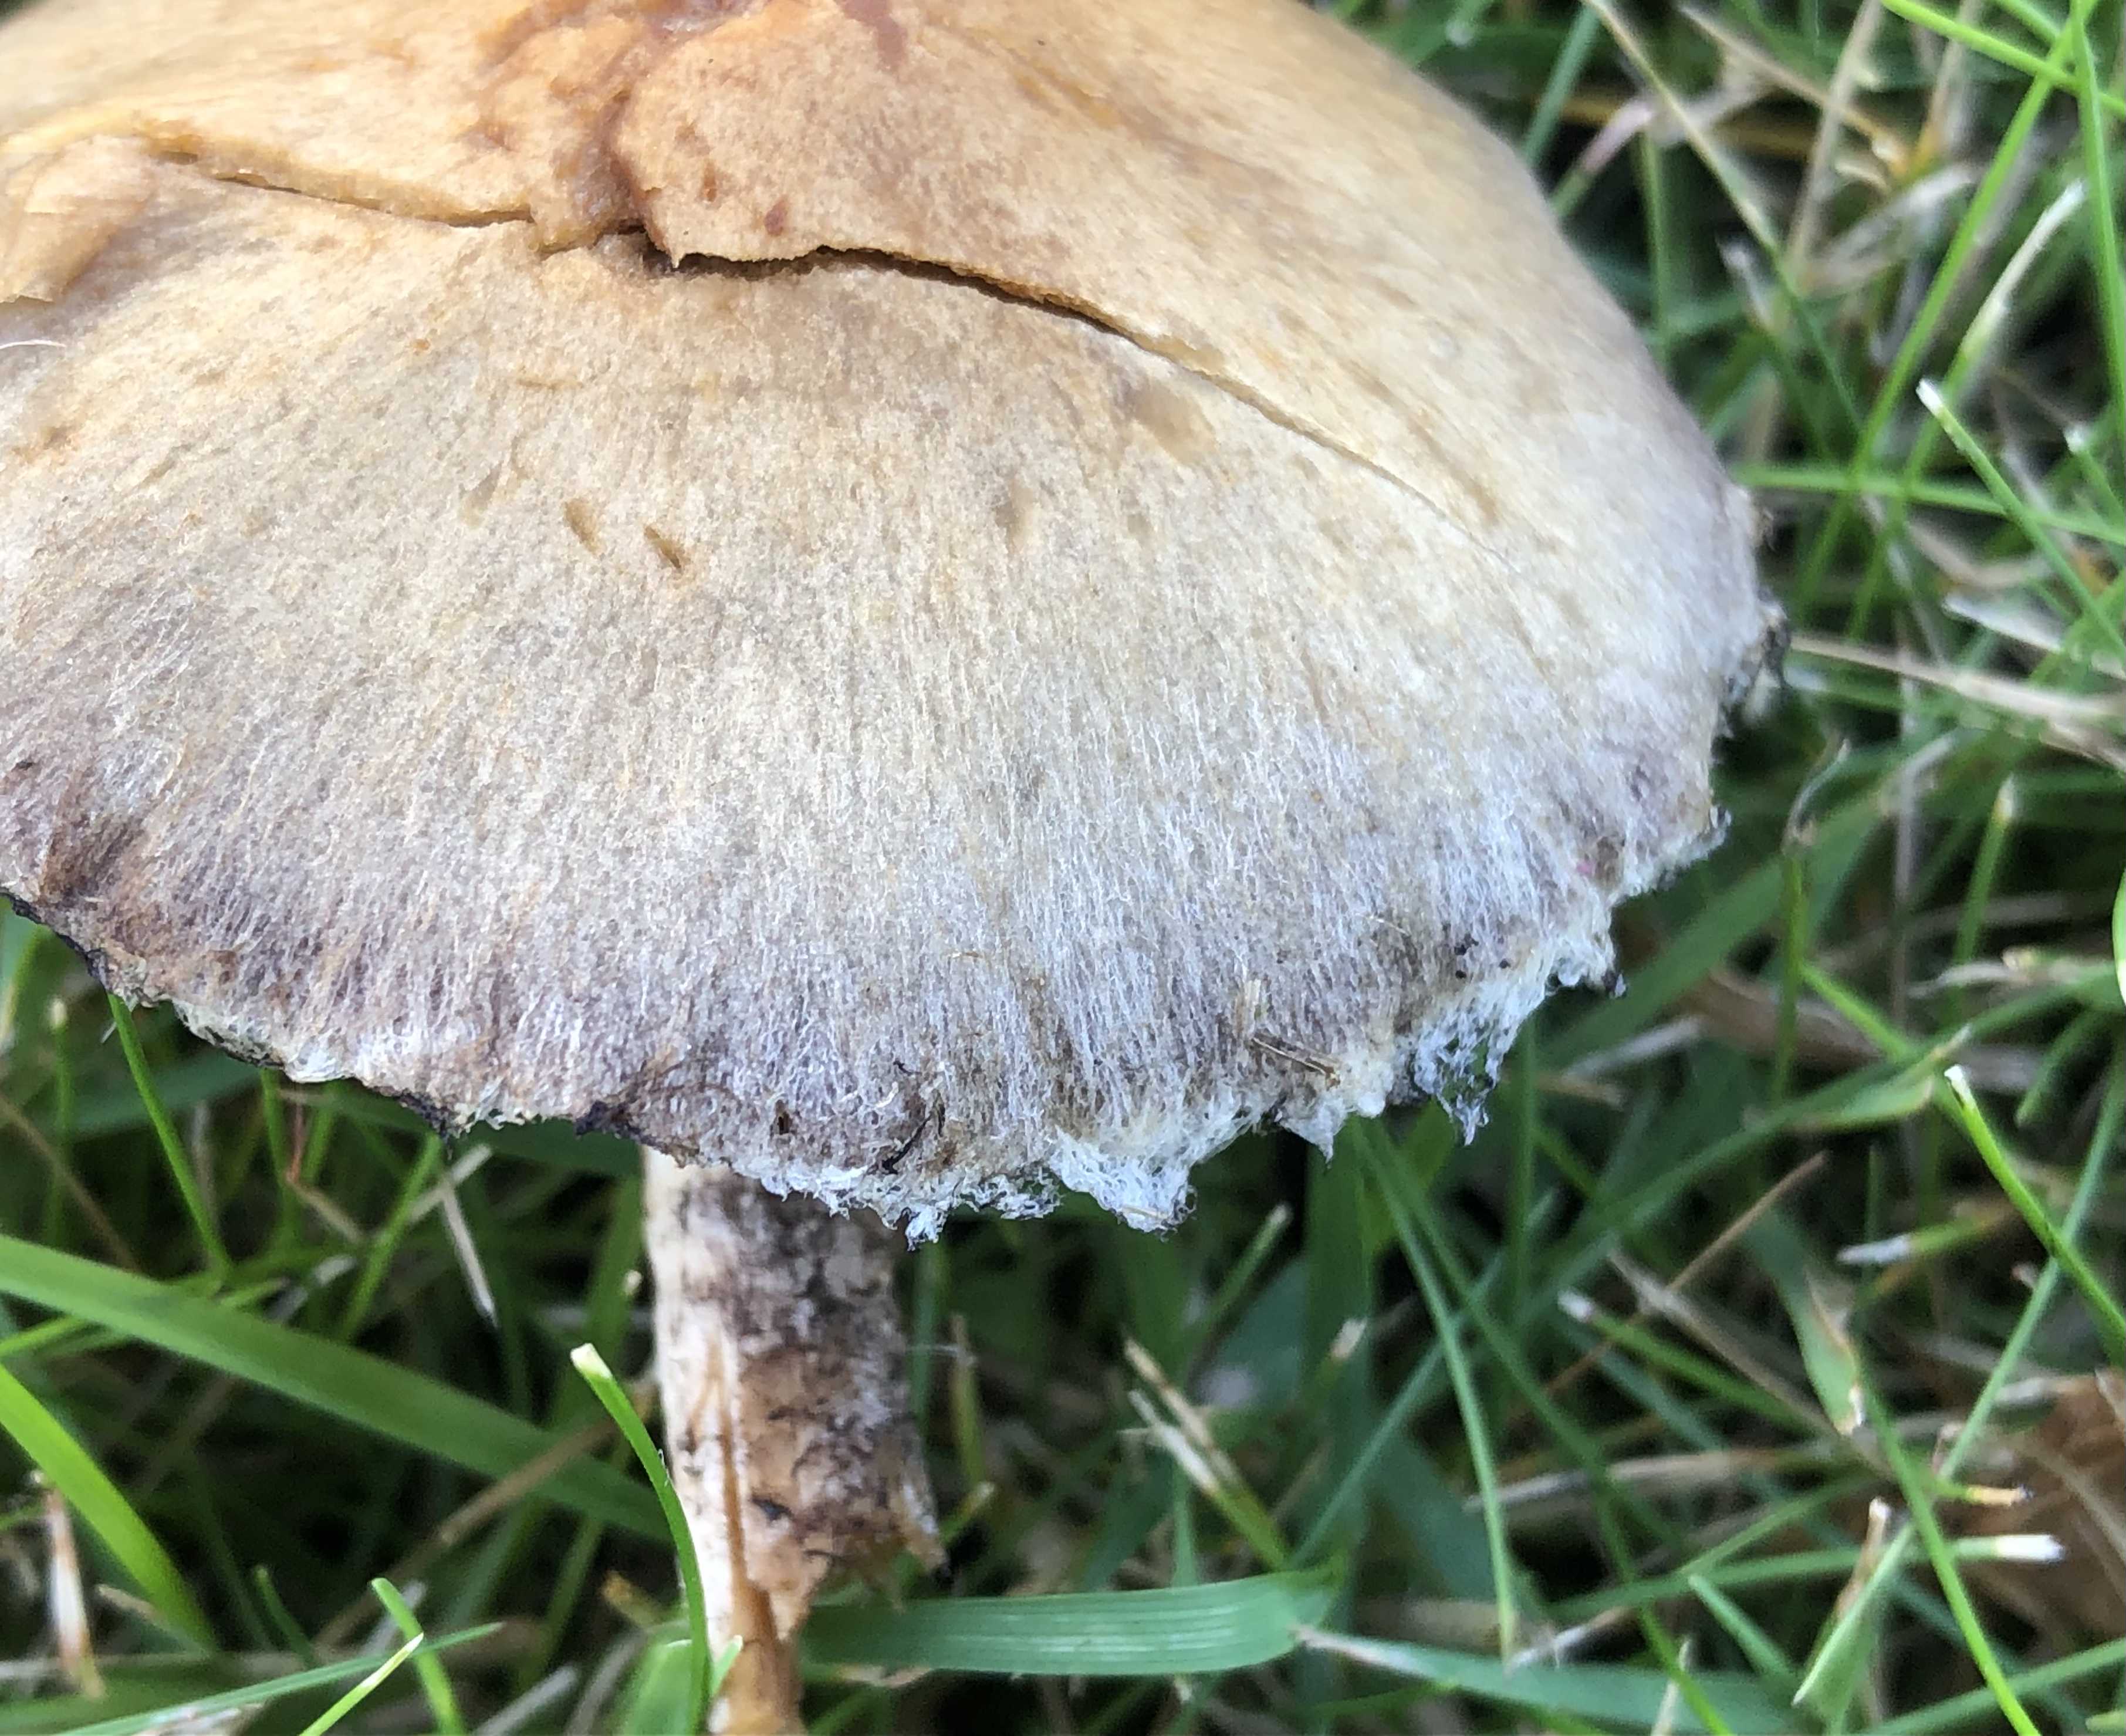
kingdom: Fungi
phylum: Basidiomycota
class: Agaricomycetes
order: Agaricales
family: Psathyrellaceae
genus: Lacrymaria
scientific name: Lacrymaria lacrymabunda
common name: grædende mørkhat
